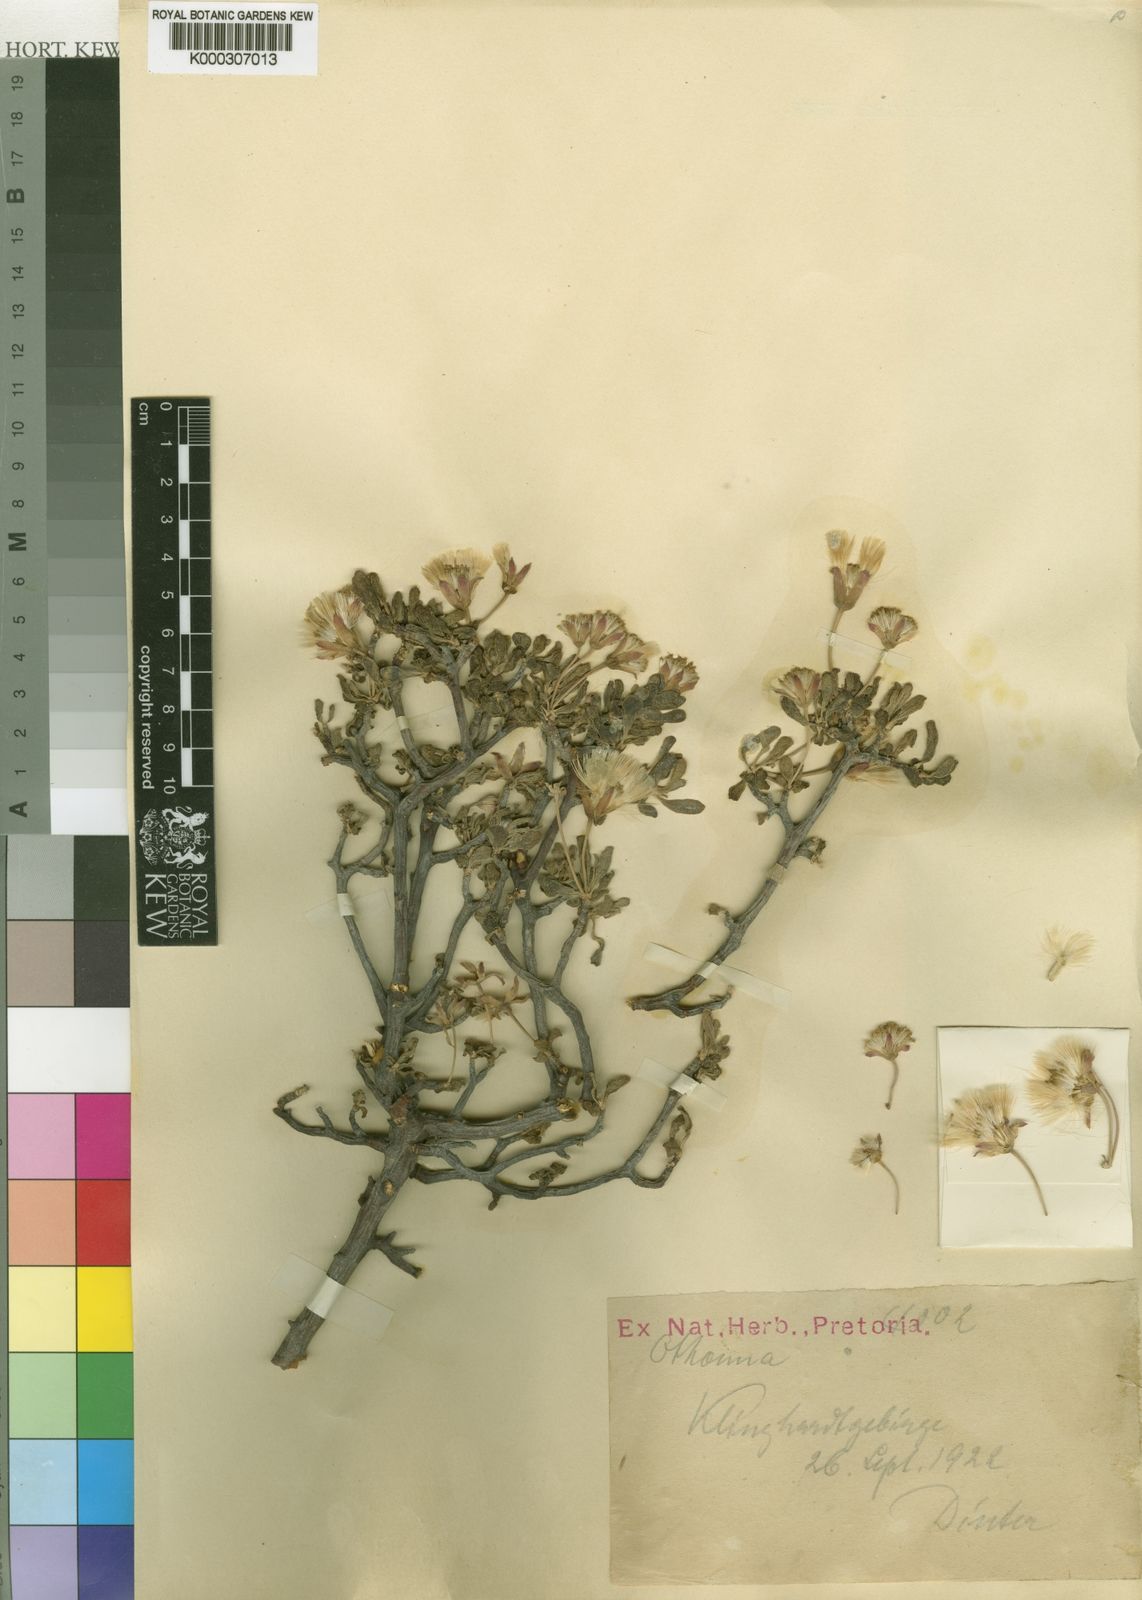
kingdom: Plantae
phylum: Tracheophyta
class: Magnoliopsida
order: Asterales
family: Asteraceae
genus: Senecio
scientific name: Senecio alooides
